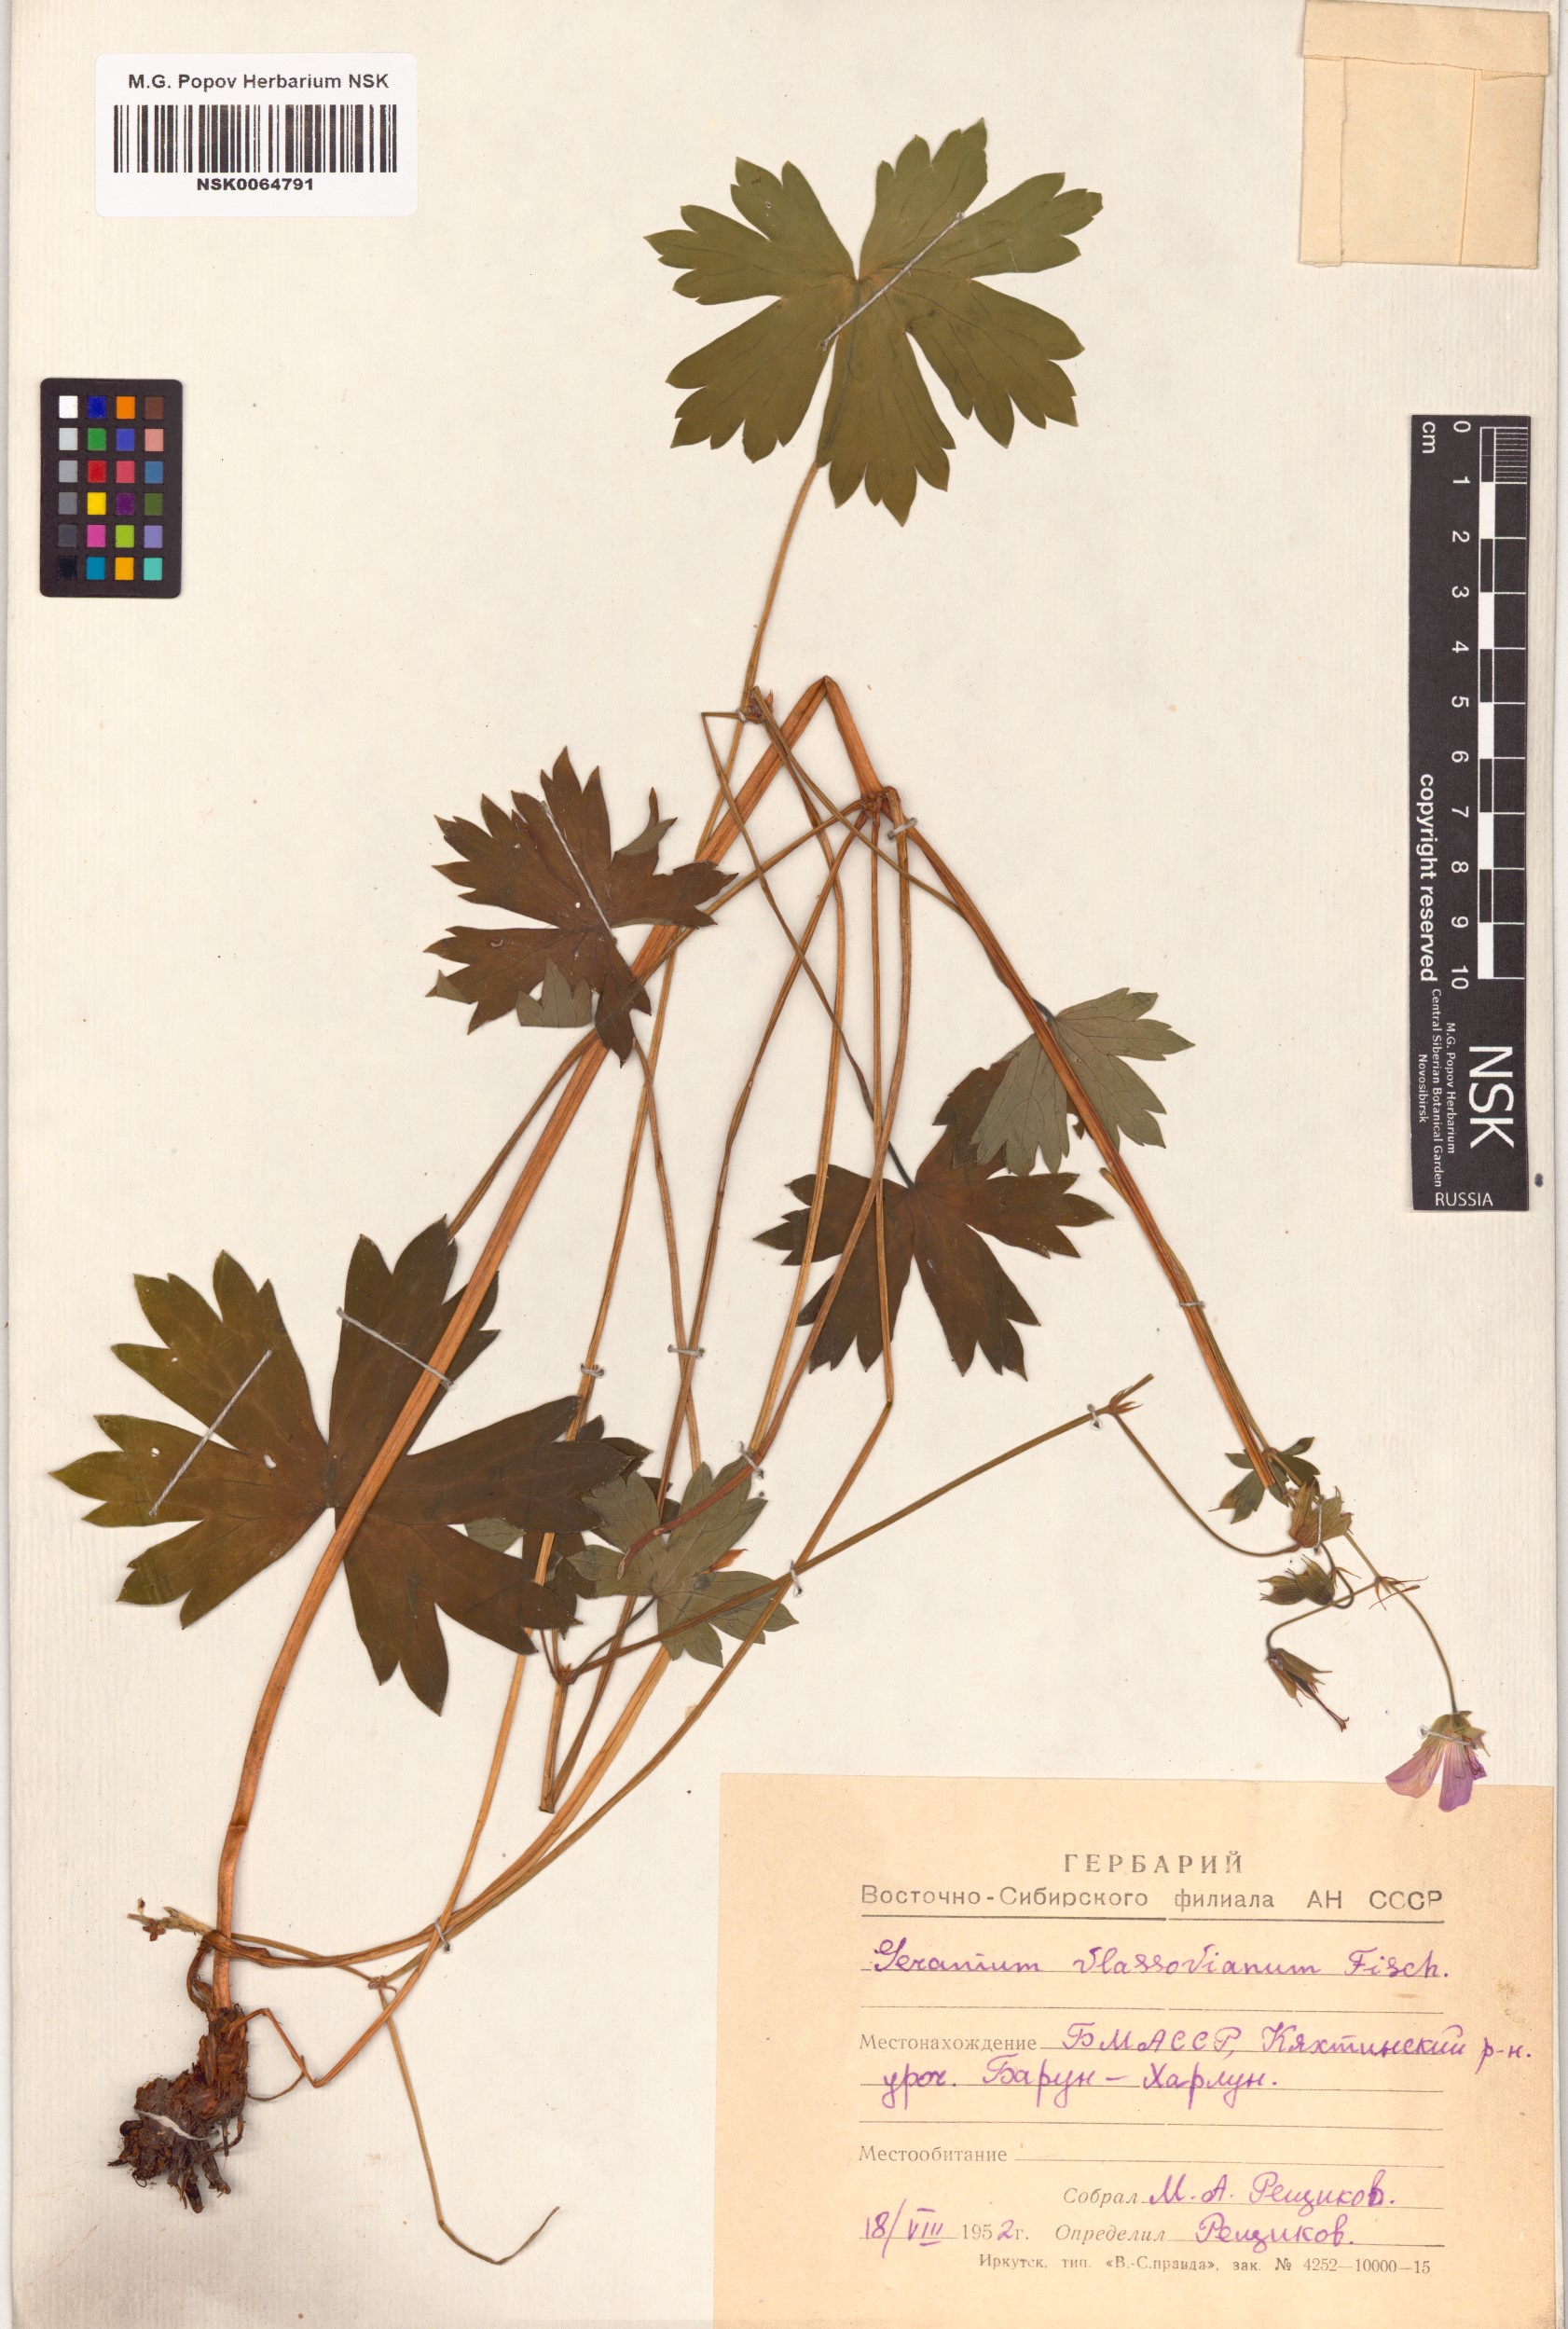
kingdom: Plantae
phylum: Tracheophyta
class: Magnoliopsida
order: Geraniales
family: Geraniaceae
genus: Geranium
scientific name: Geranium wlassovianum
